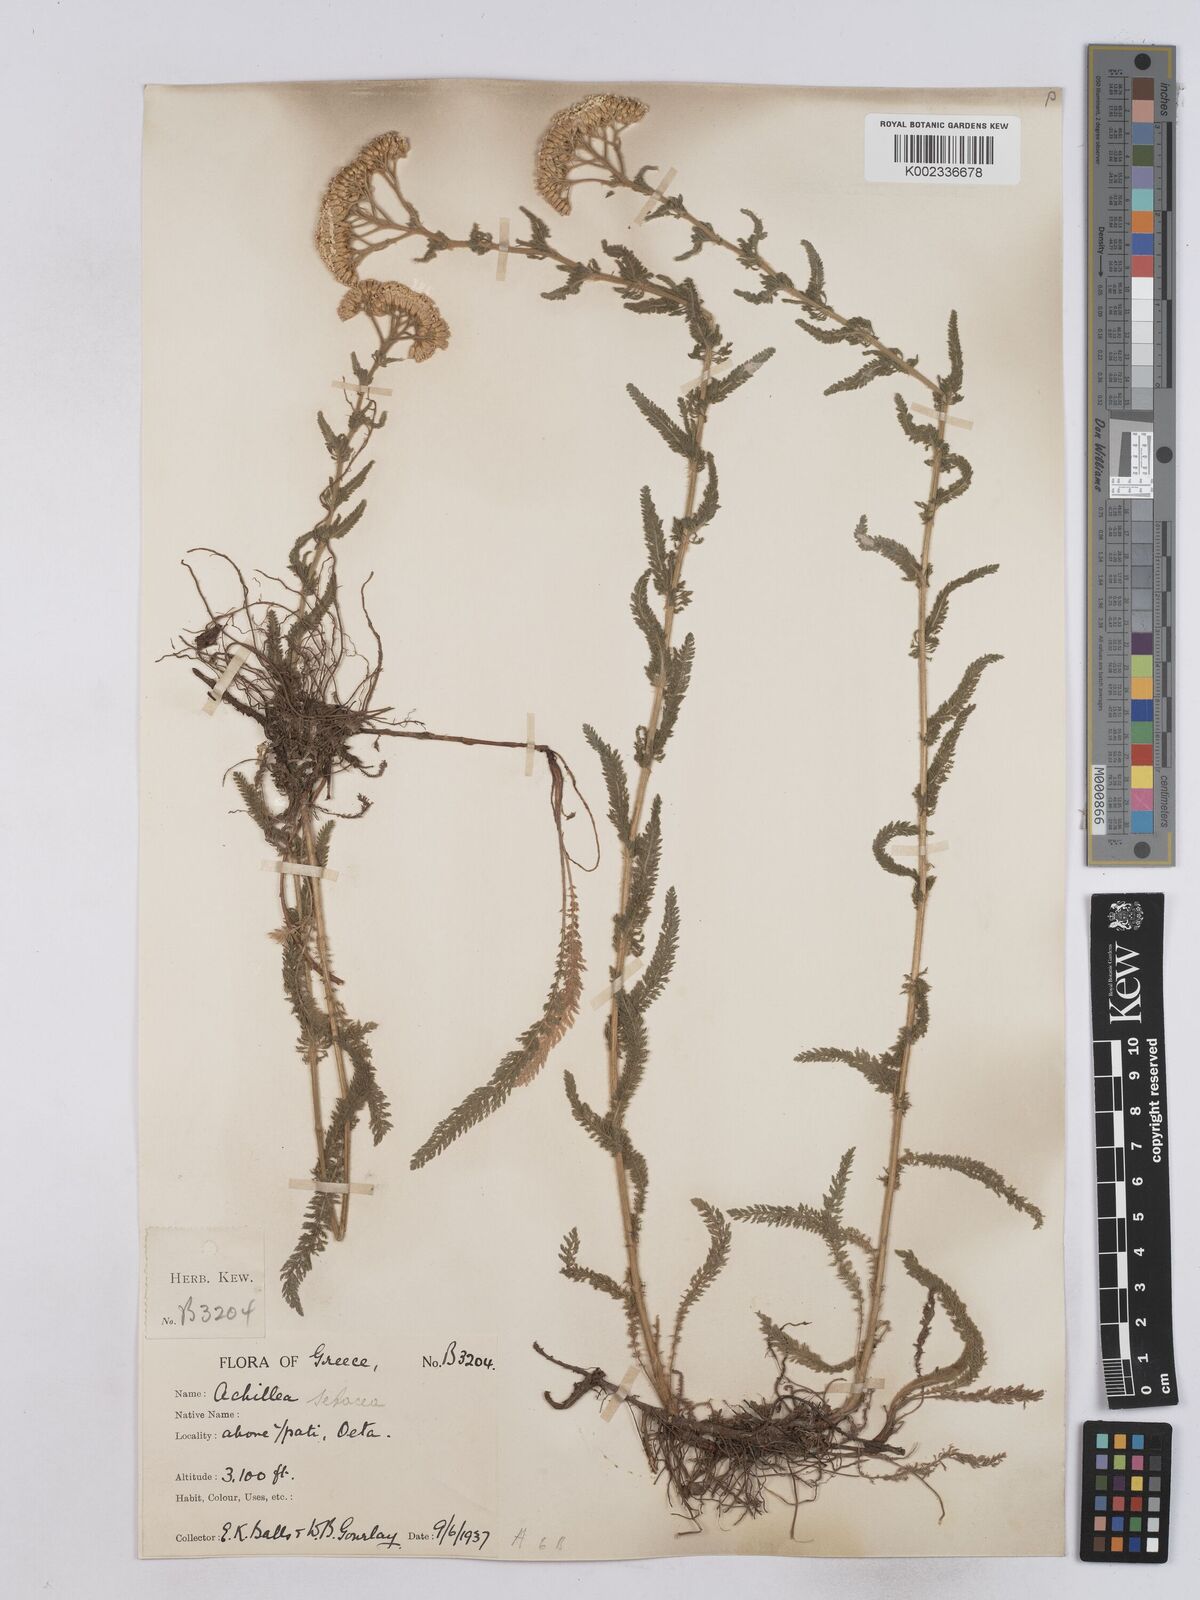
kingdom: Plantae
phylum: Tracheophyta
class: Magnoliopsida
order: Asterales
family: Asteraceae
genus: Achillea
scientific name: Achillea setacea
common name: Bristly yarrow
